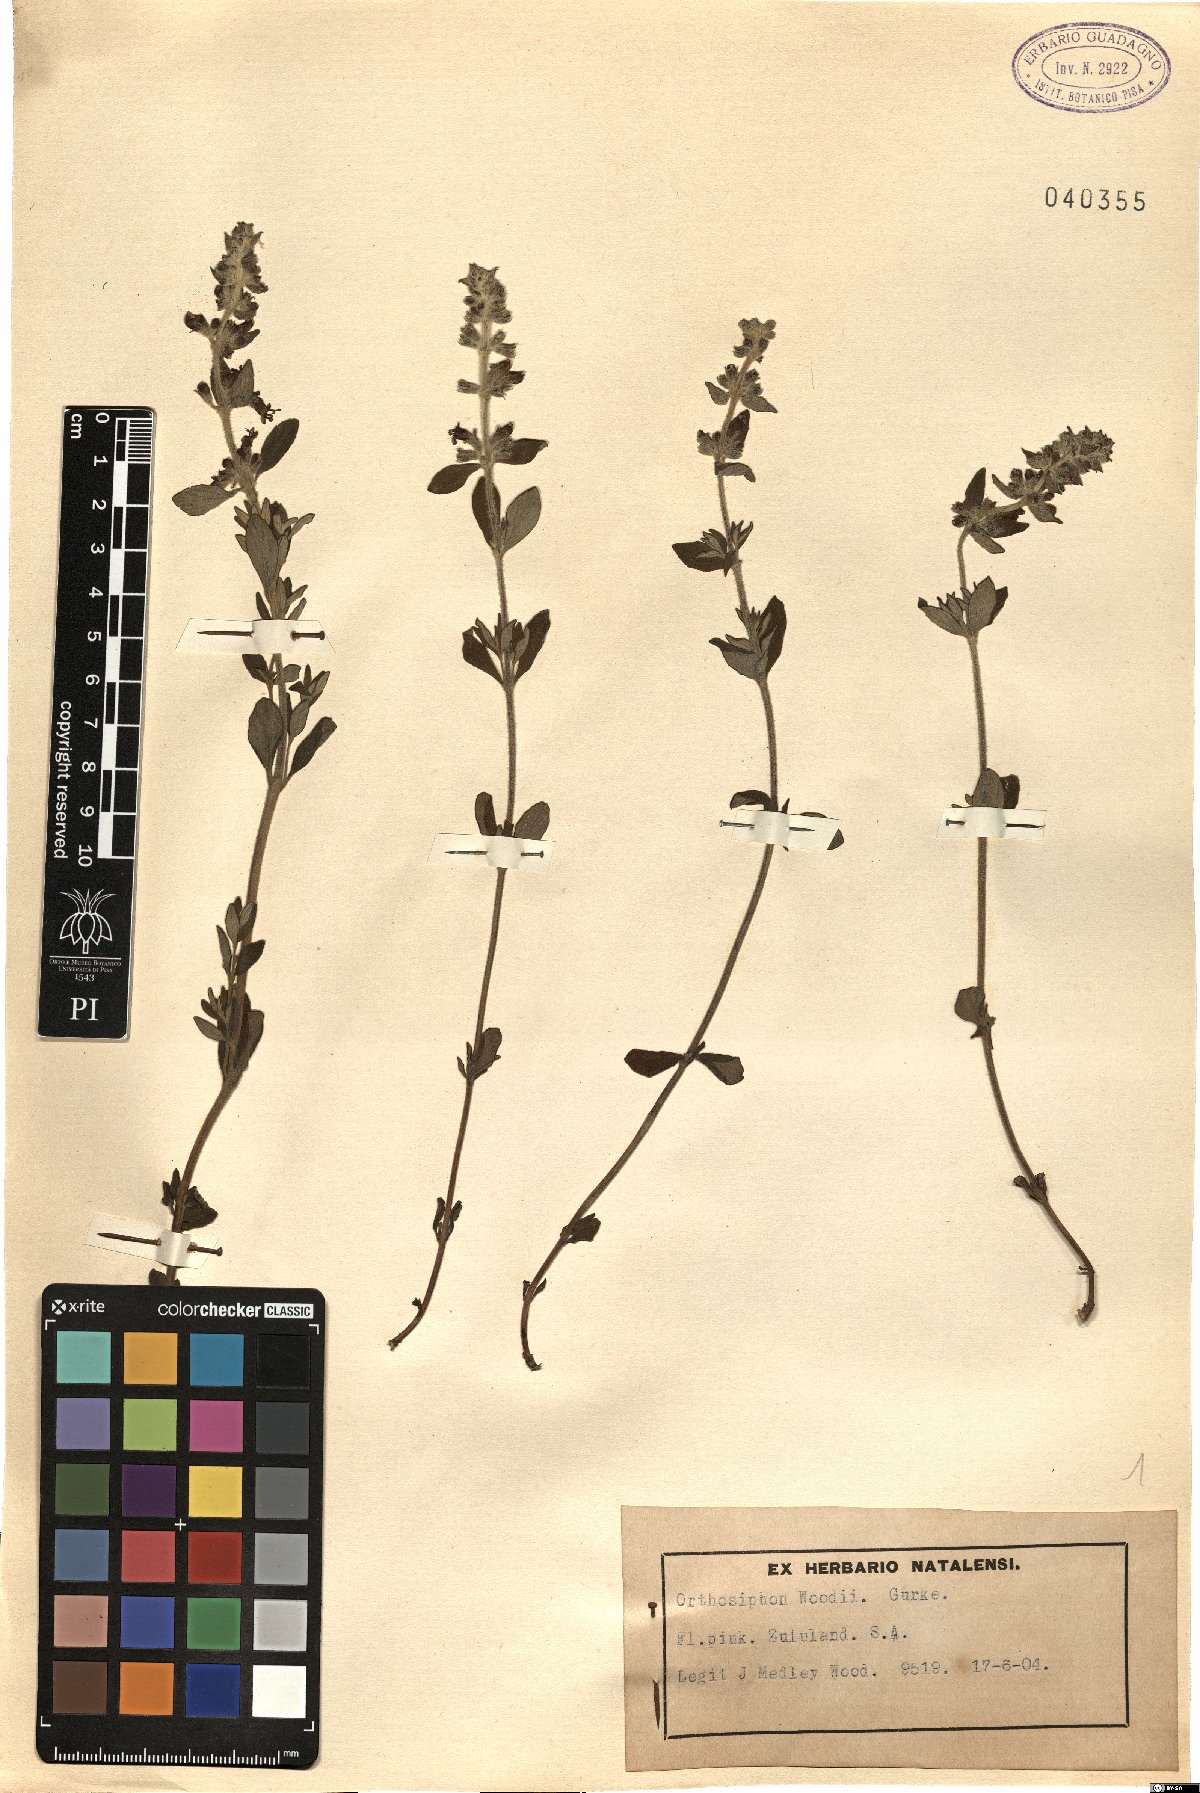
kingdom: Plantae
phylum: Tracheophyta
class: Magnoliopsida
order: Lamiales
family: Lamiaceae
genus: Syncolostemon
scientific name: Syncolostemon teucriifolius
